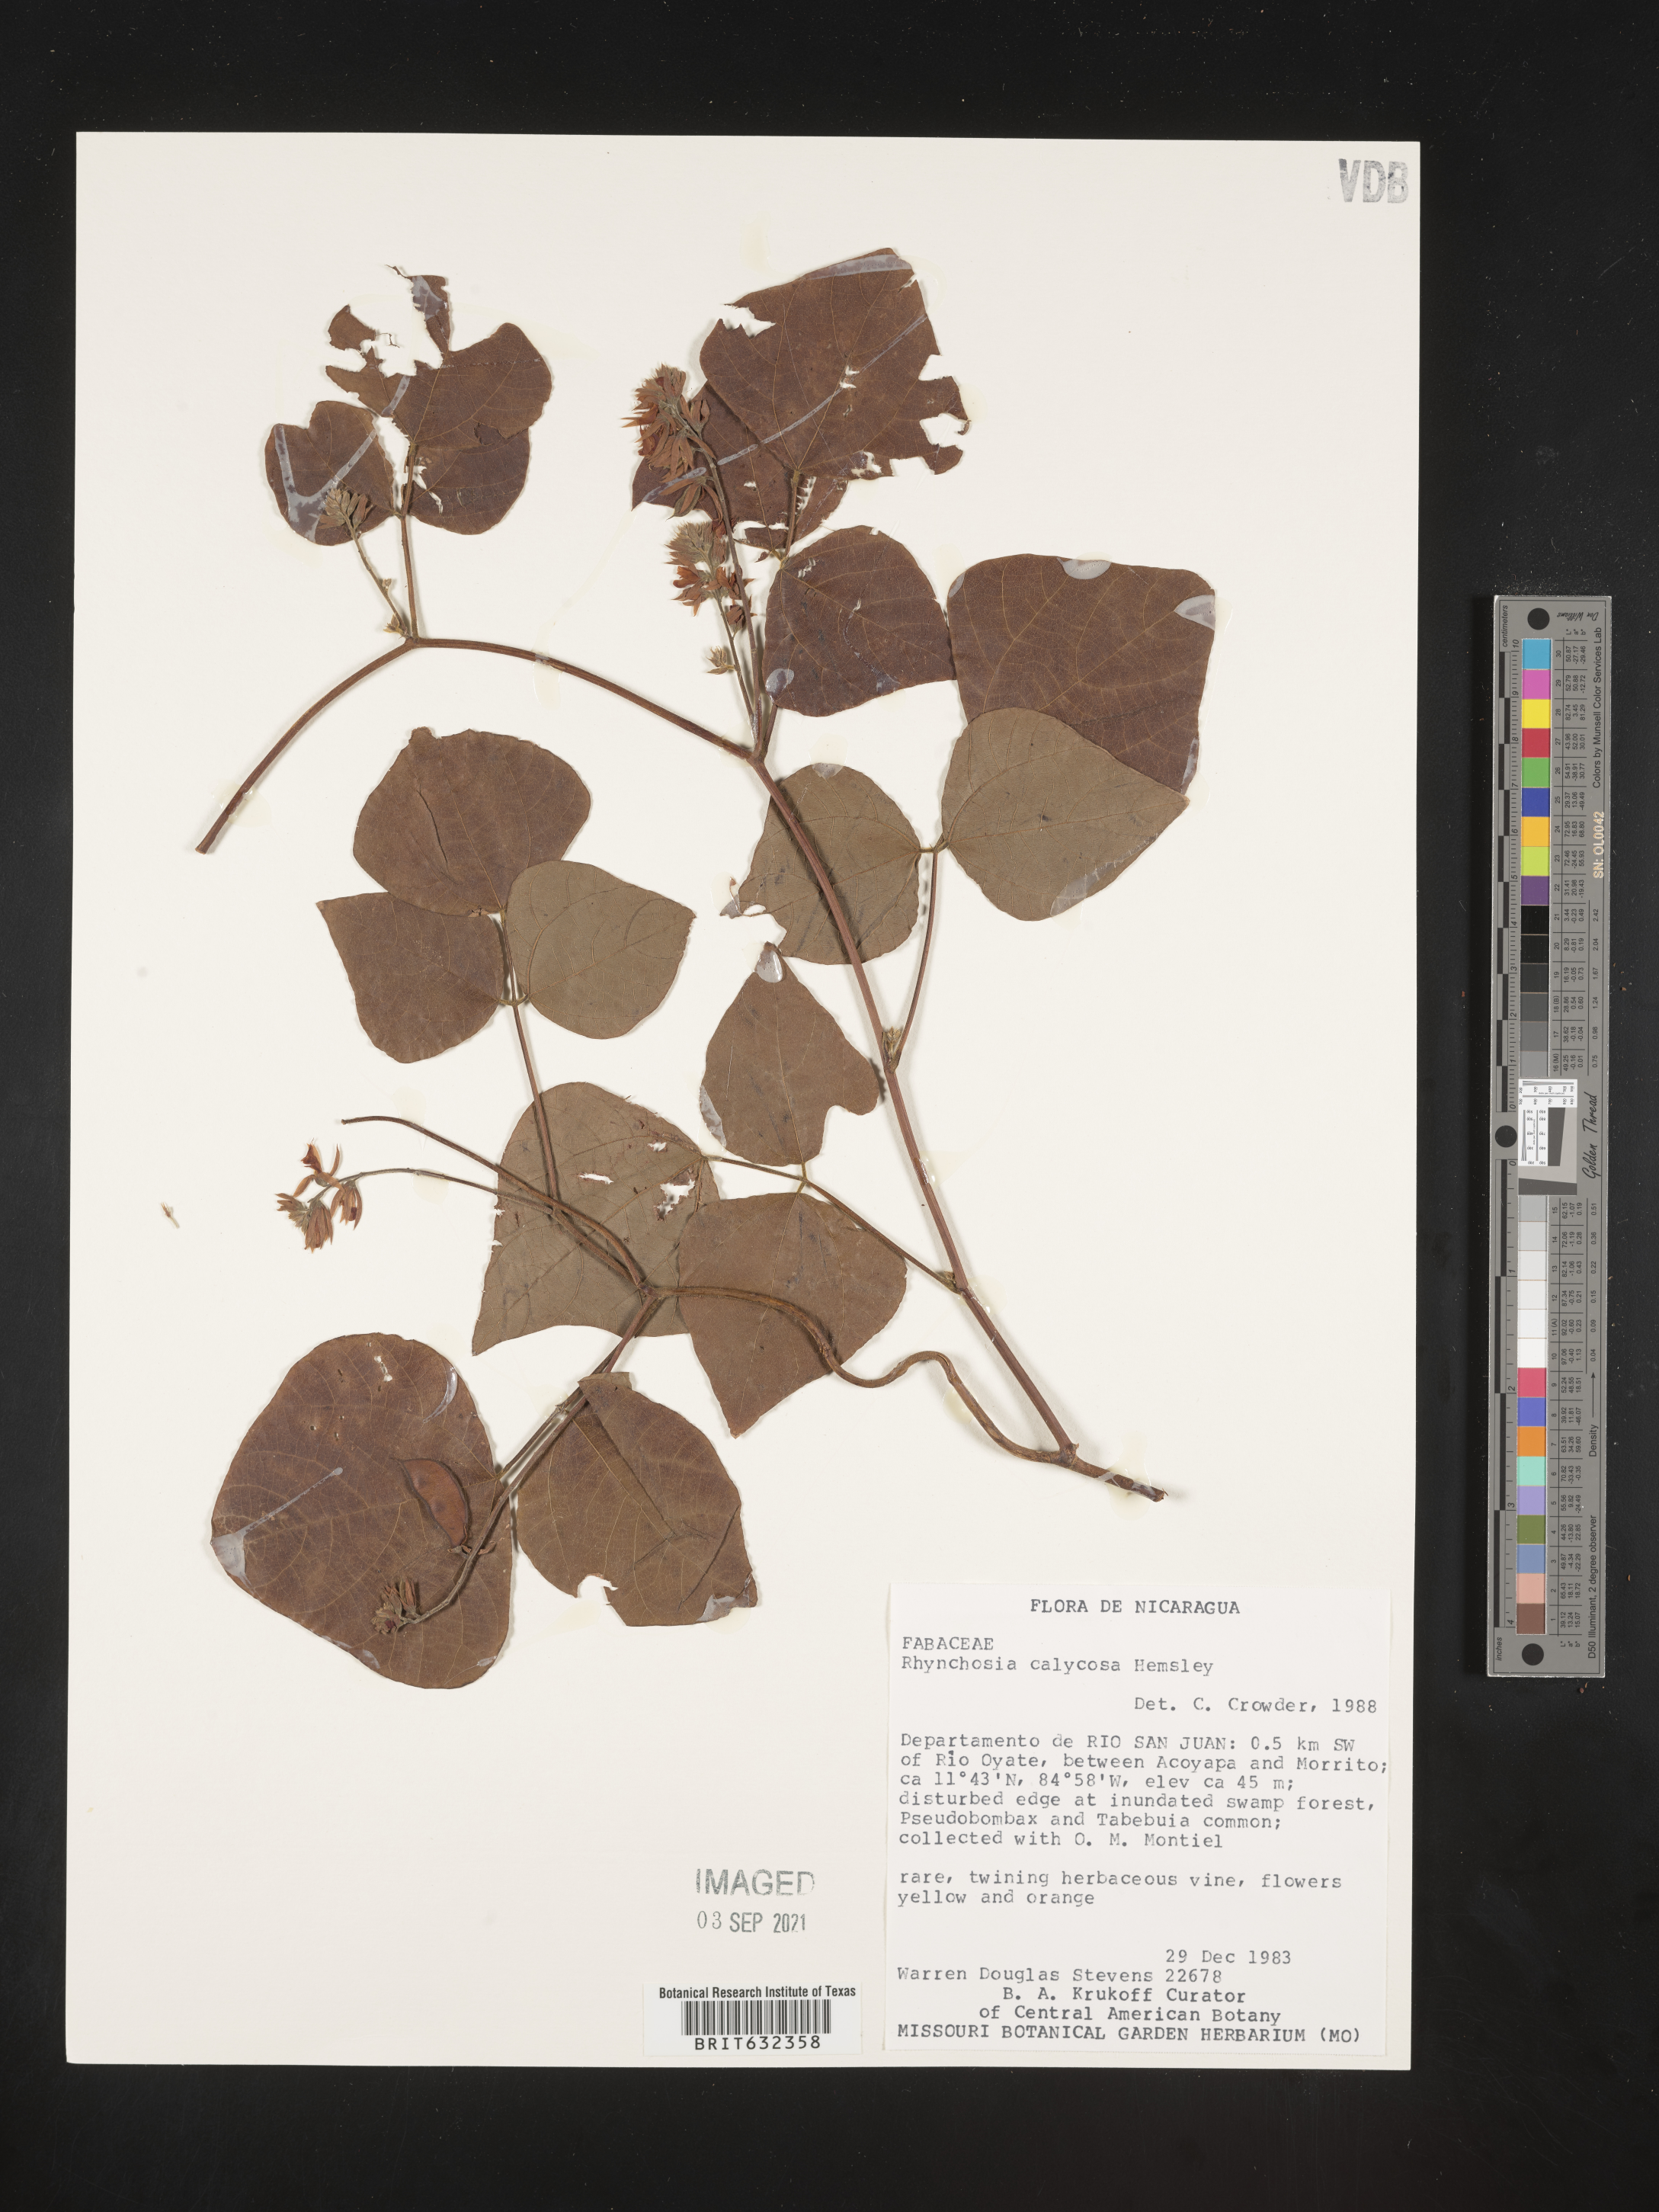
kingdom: Plantae
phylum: Tracheophyta
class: Magnoliopsida
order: Fabales
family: Fabaceae
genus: Rhynchosia
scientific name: Rhynchosia
